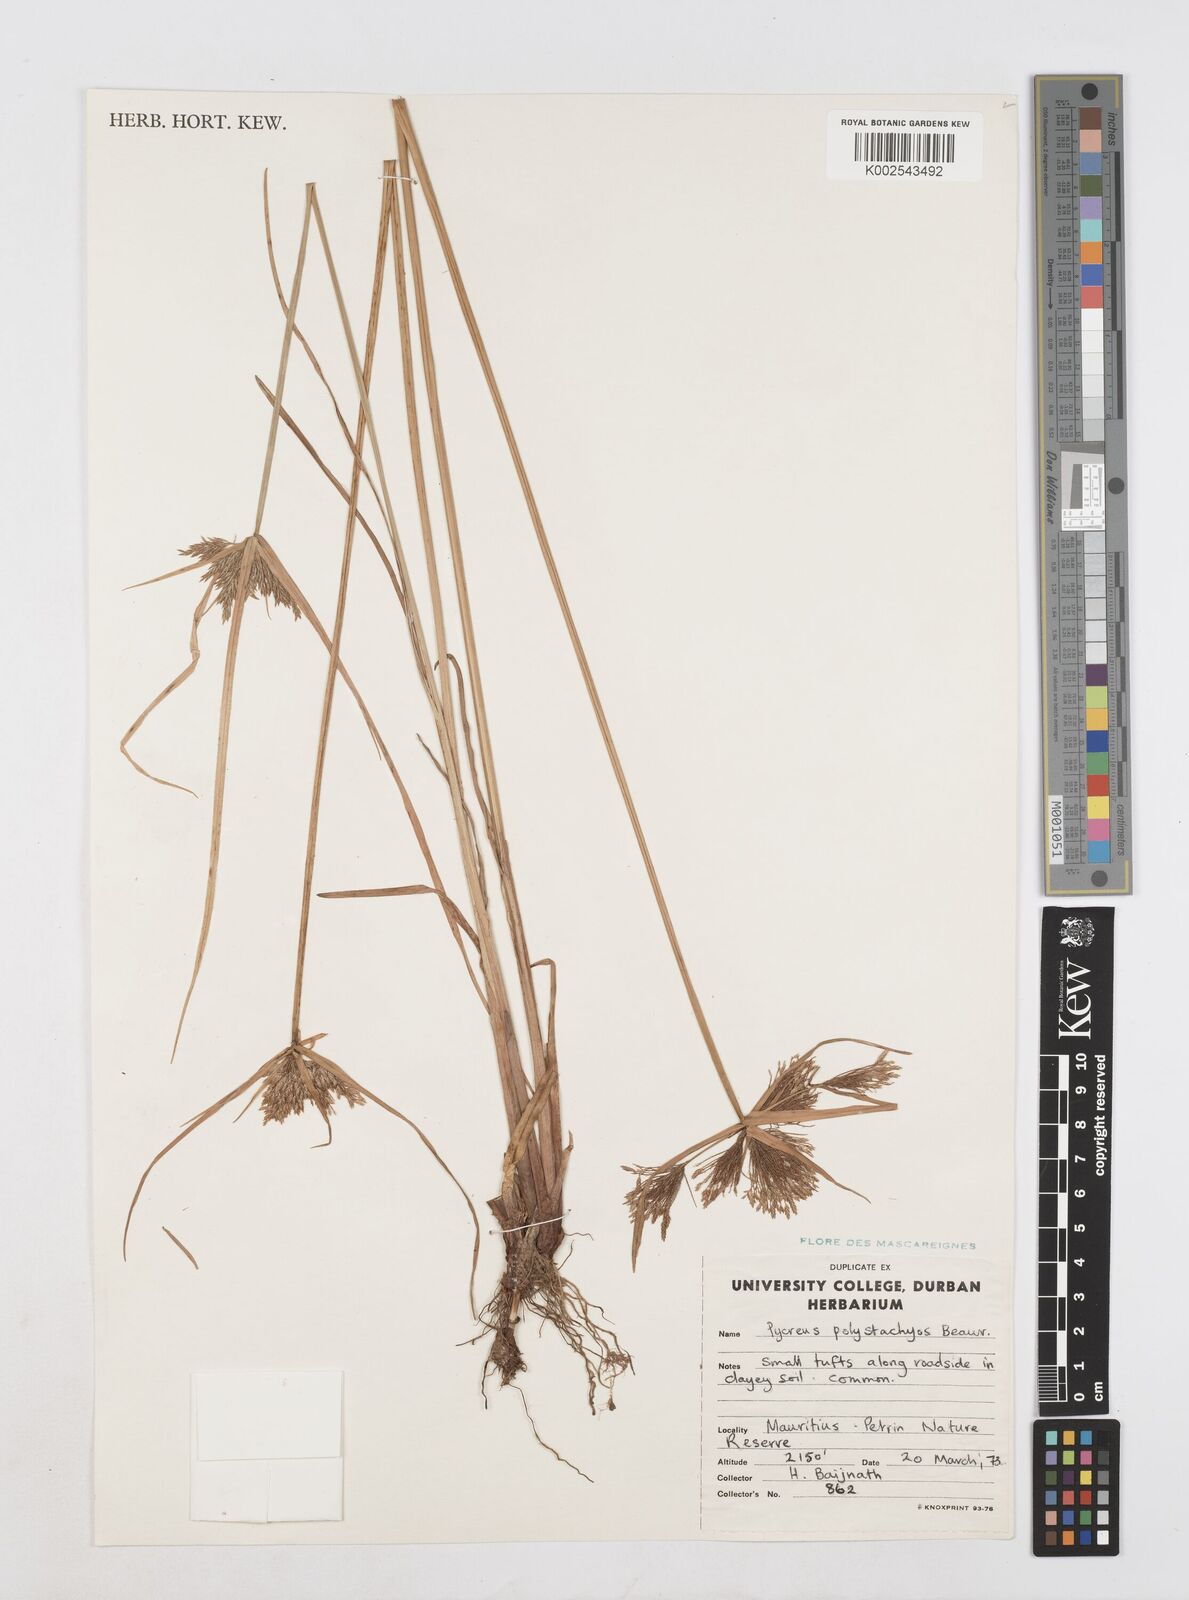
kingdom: Plantae
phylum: Tracheophyta
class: Liliopsida
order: Poales
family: Cyperaceae
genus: Cyperus
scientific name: Cyperus polystachyos
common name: Bunchy flat sedge
